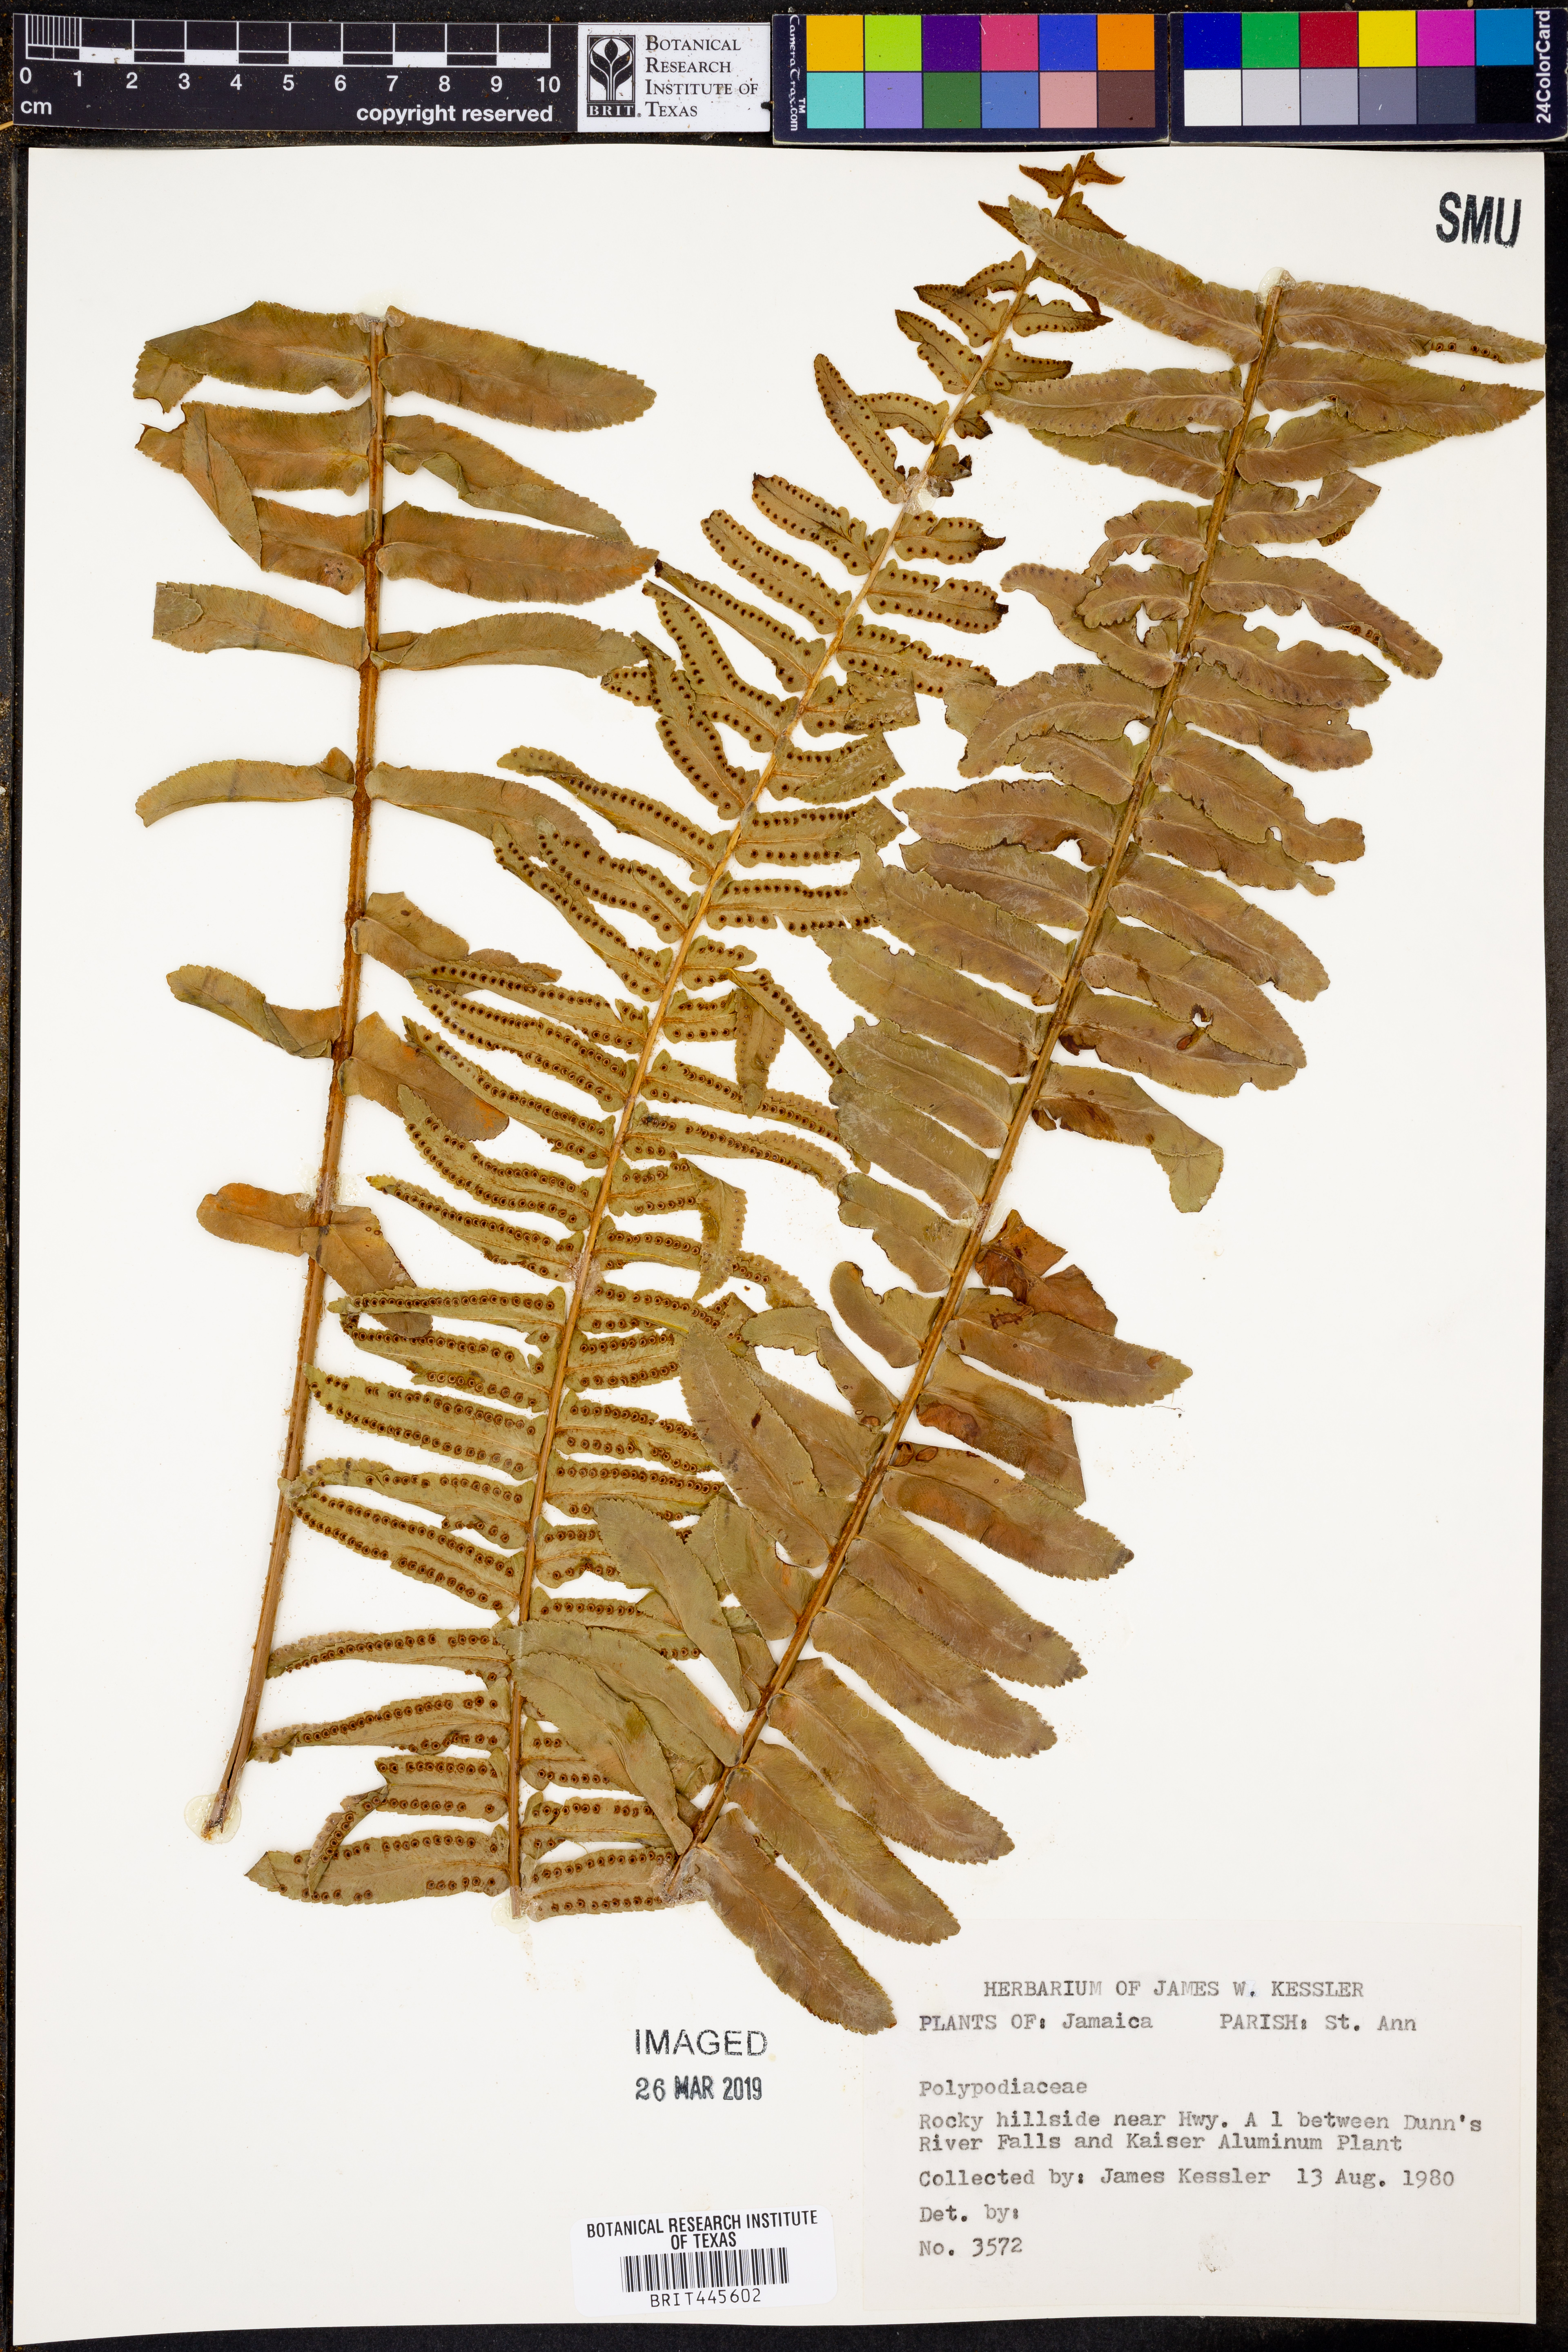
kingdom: Plantae
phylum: Tracheophyta
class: Polypodiopsida
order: Polypodiales
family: Polypodiaceae
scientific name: Polypodiaceae
